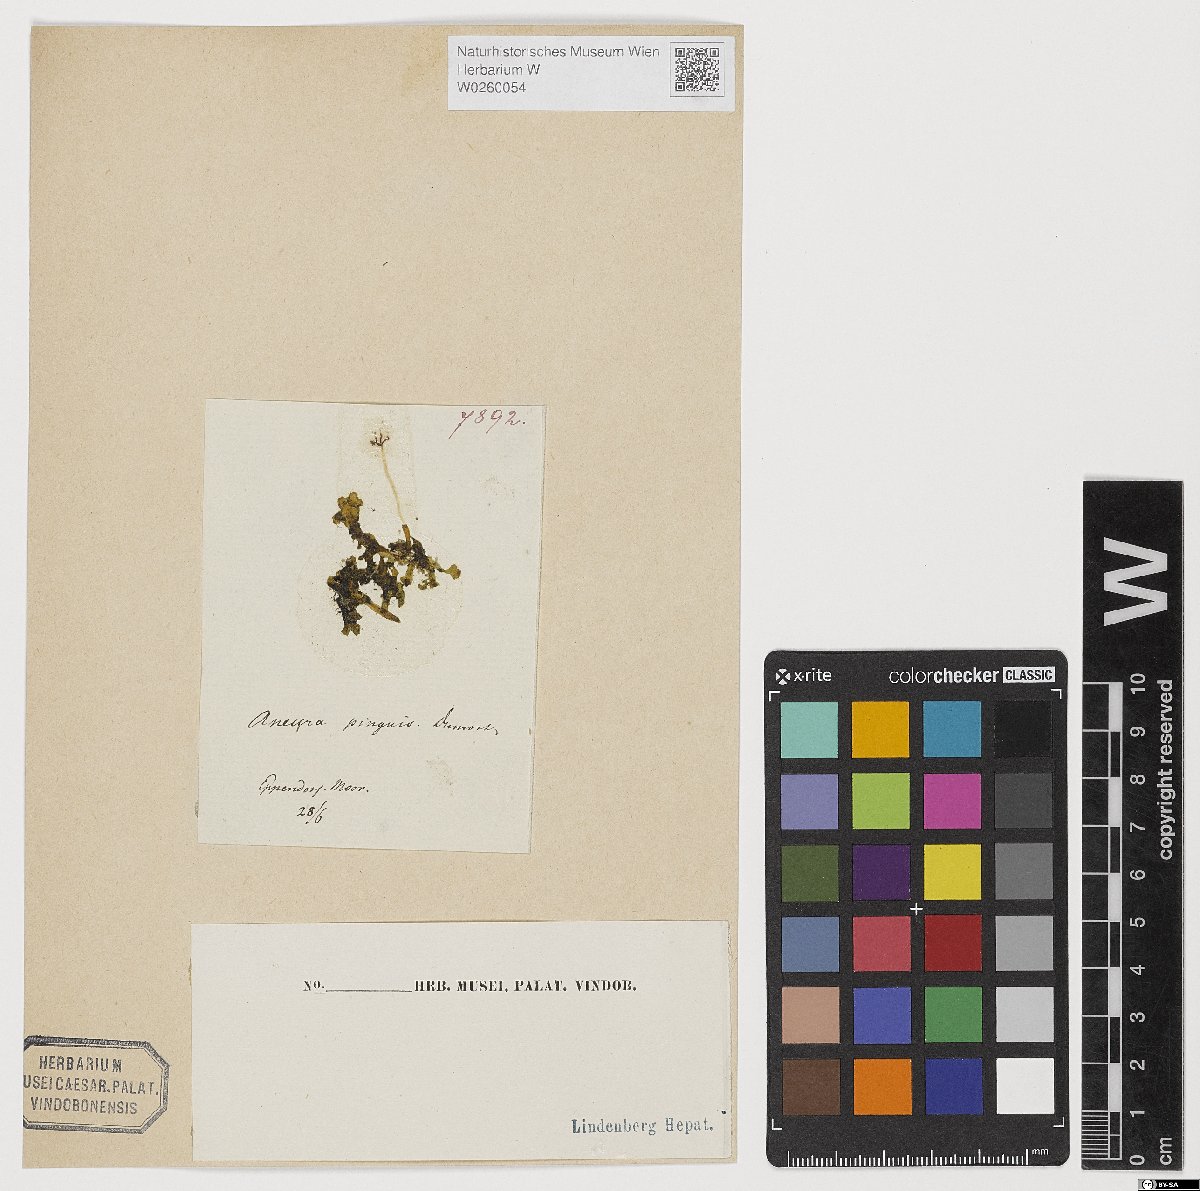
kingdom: Plantae
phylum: Marchantiophyta
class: Jungermanniopsida
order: Metzgeriales
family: Aneuraceae
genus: Aneura
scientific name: Aneura pinguis
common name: Common greasewort
